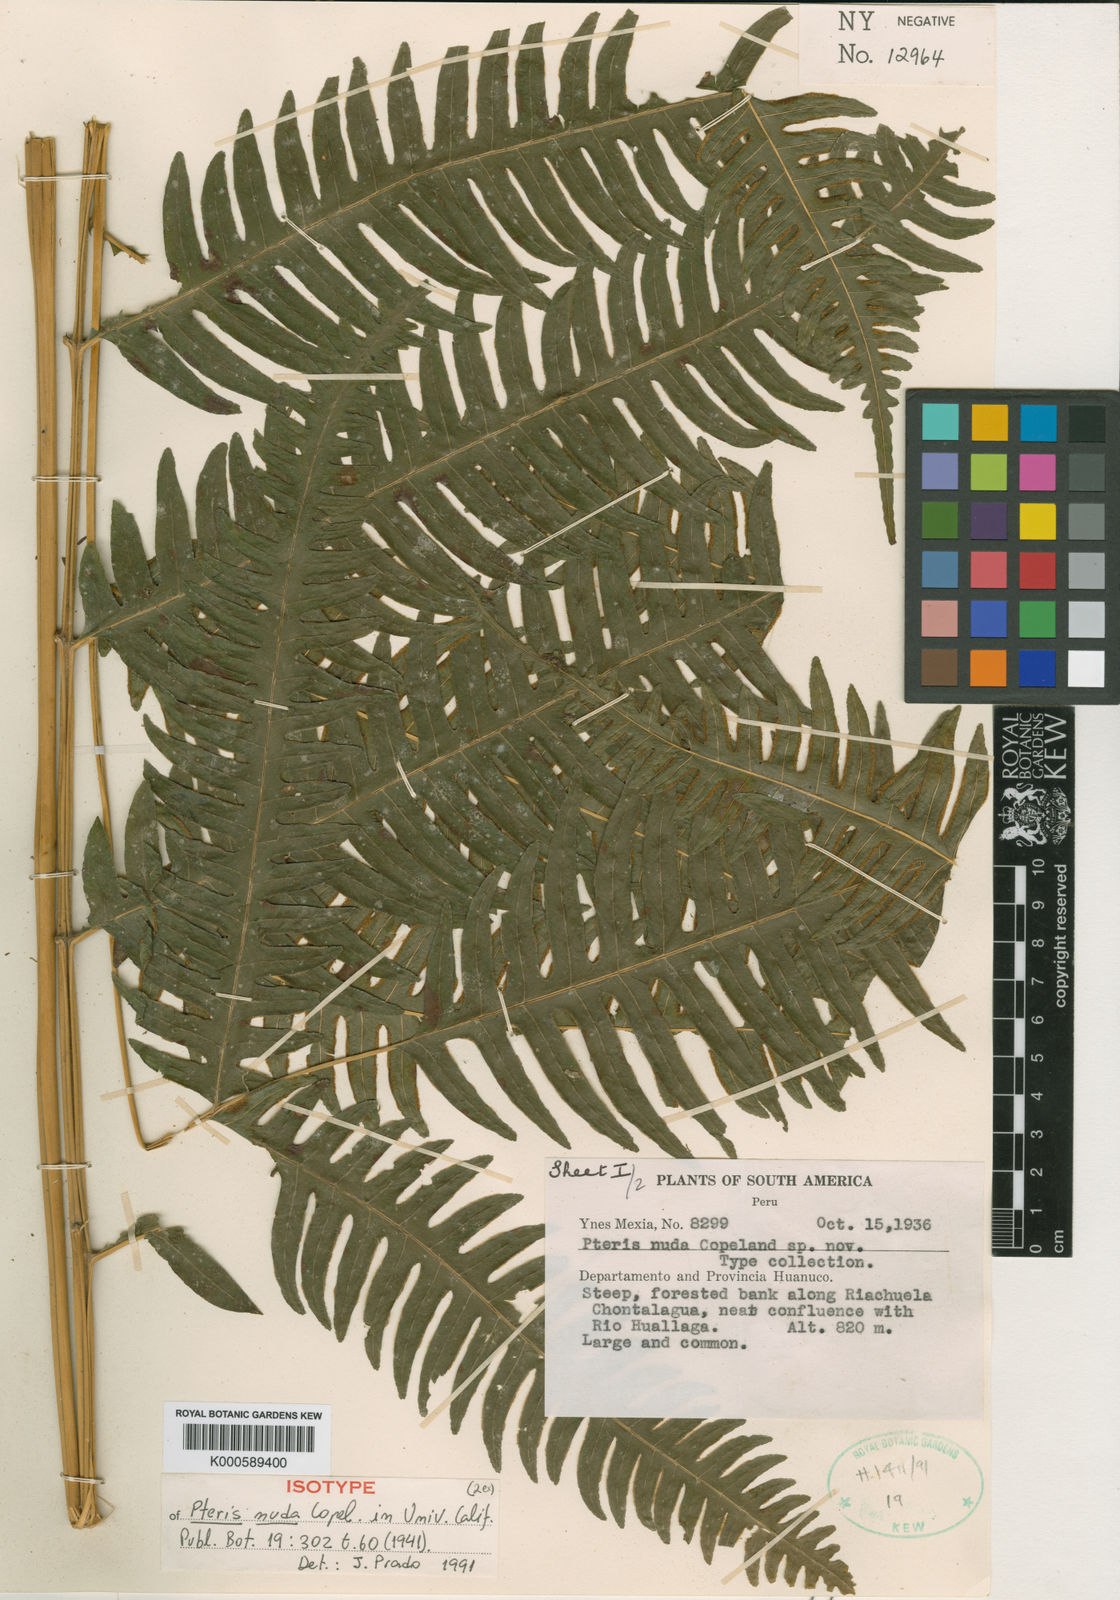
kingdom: Plantae
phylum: Tracheophyta
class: Polypodiopsida
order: Polypodiales
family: Pteridaceae
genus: Pteris
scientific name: Pteris transparens
